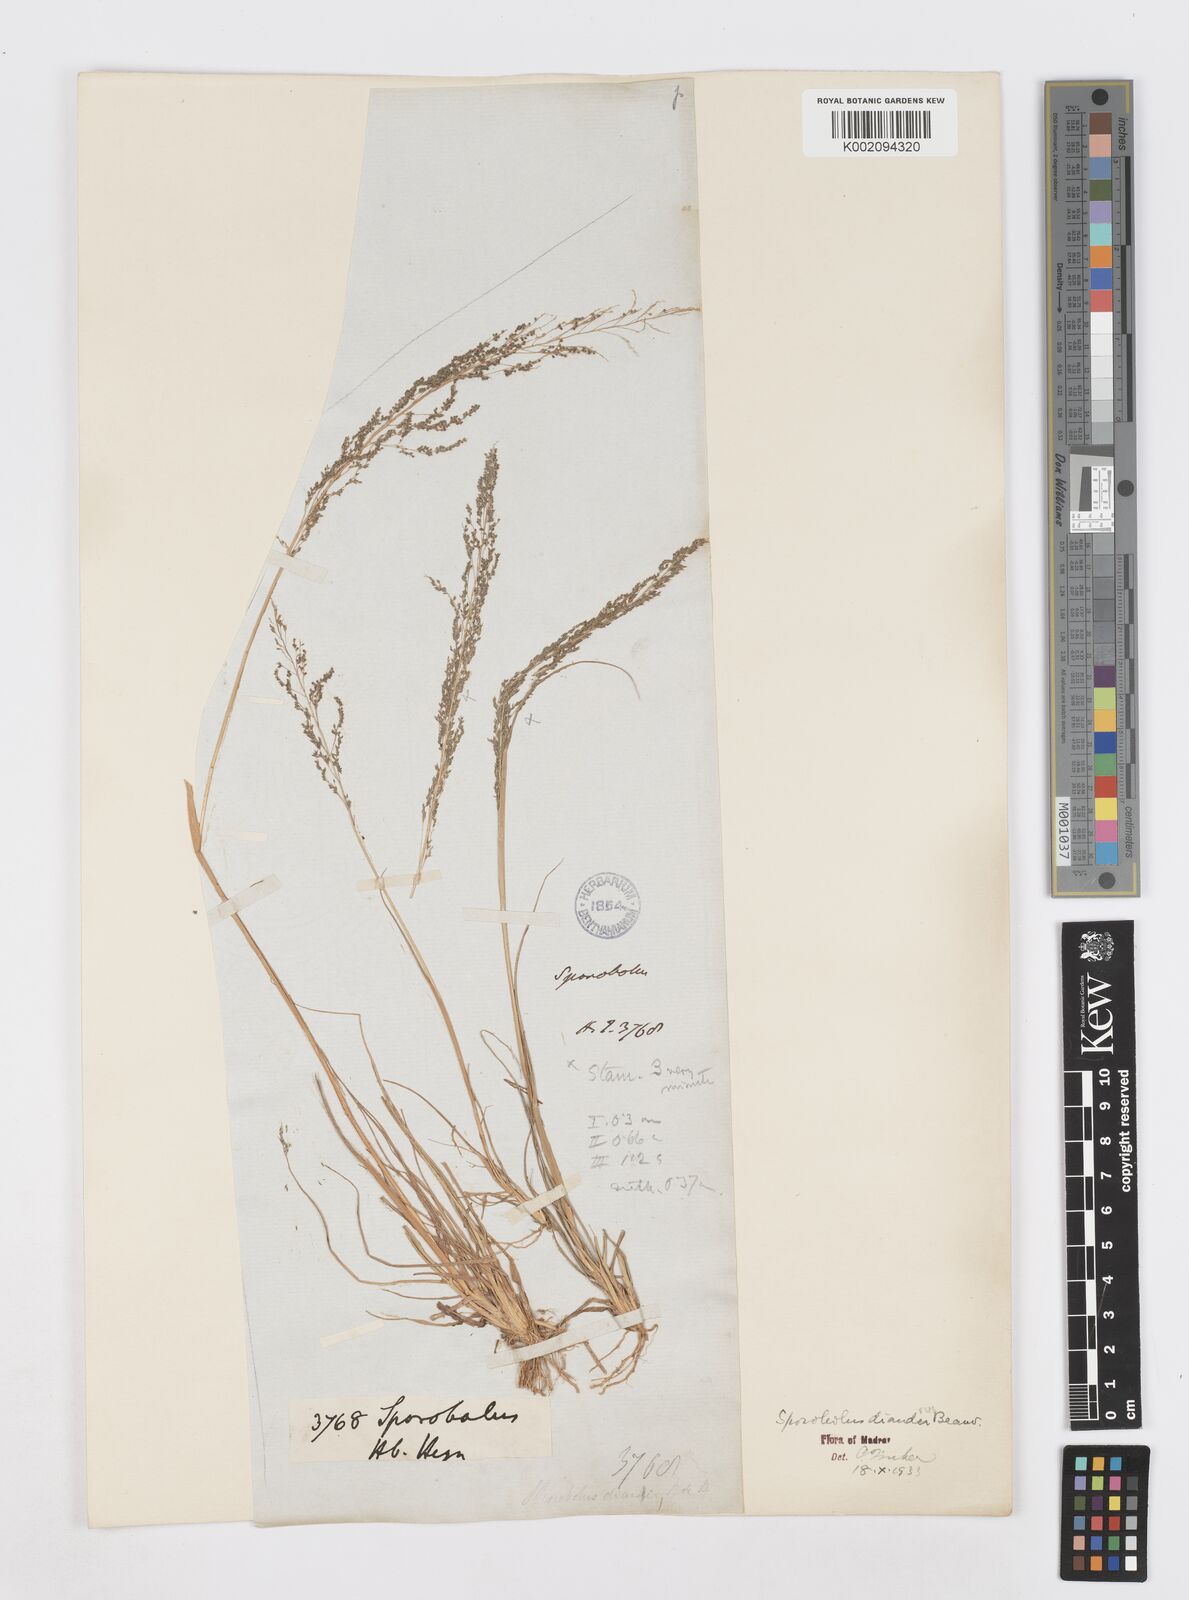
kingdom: Plantae
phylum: Tracheophyta
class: Liliopsida
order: Poales
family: Poaceae
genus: Sporobolus
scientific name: Sporobolus diandrus
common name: Tussock dropseed
